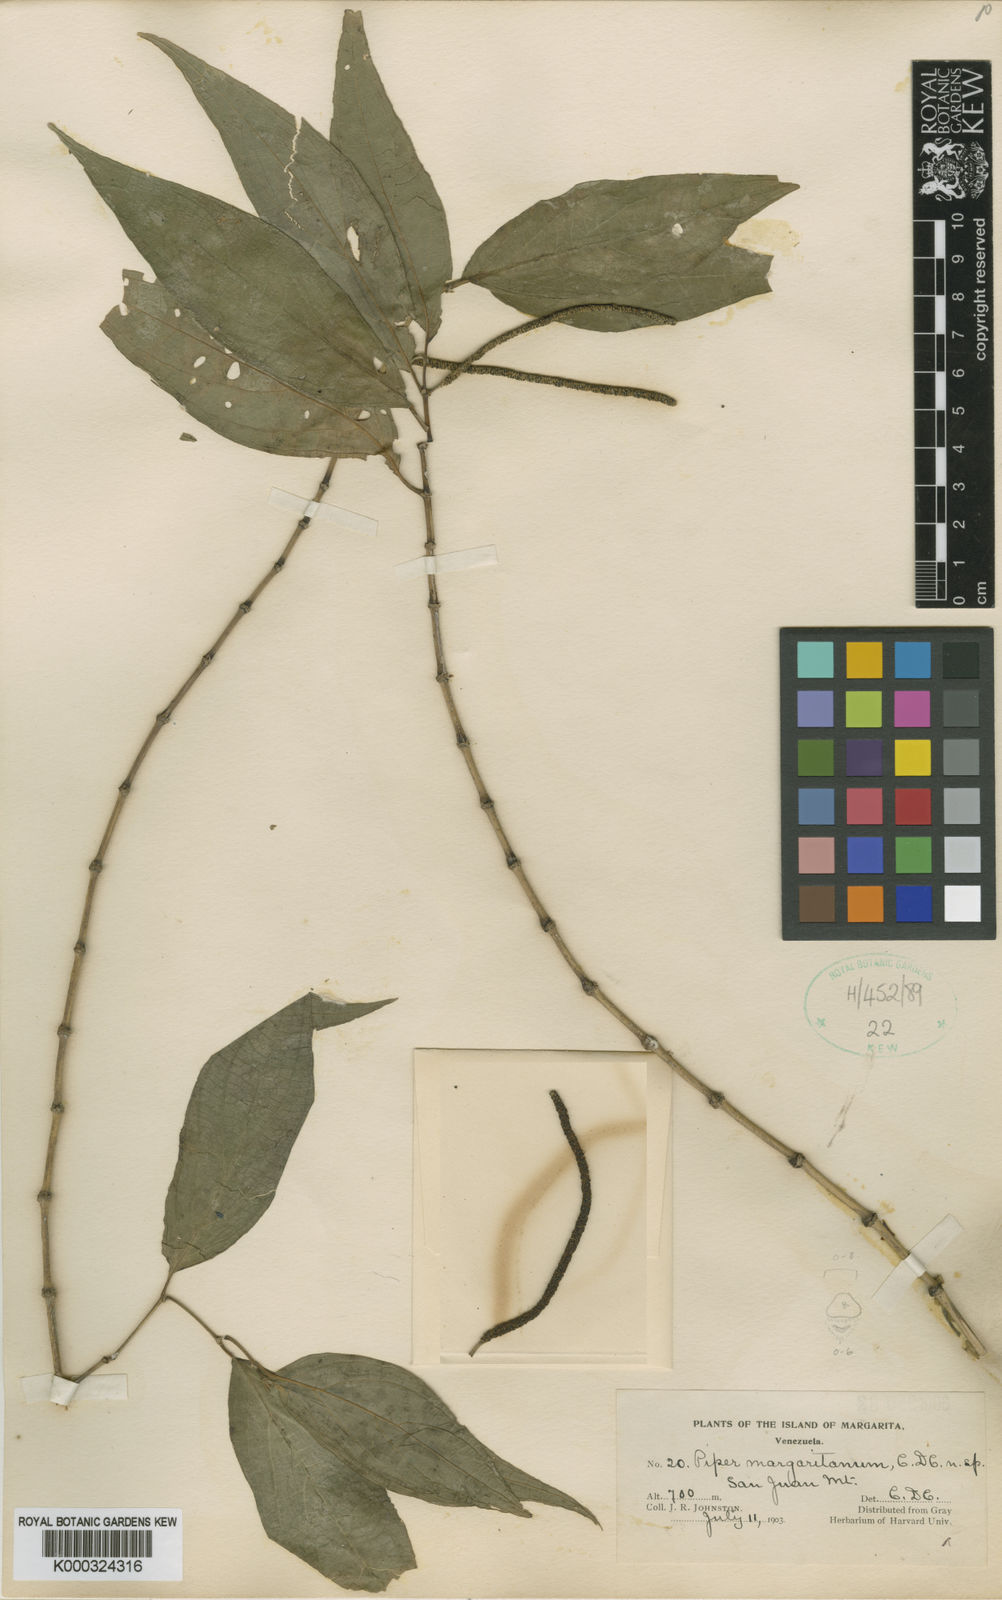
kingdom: Plantae
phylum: Tracheophyta
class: Magnoliopsida
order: Piperales
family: Piperaceae
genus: Piper
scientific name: Piper marginatum
